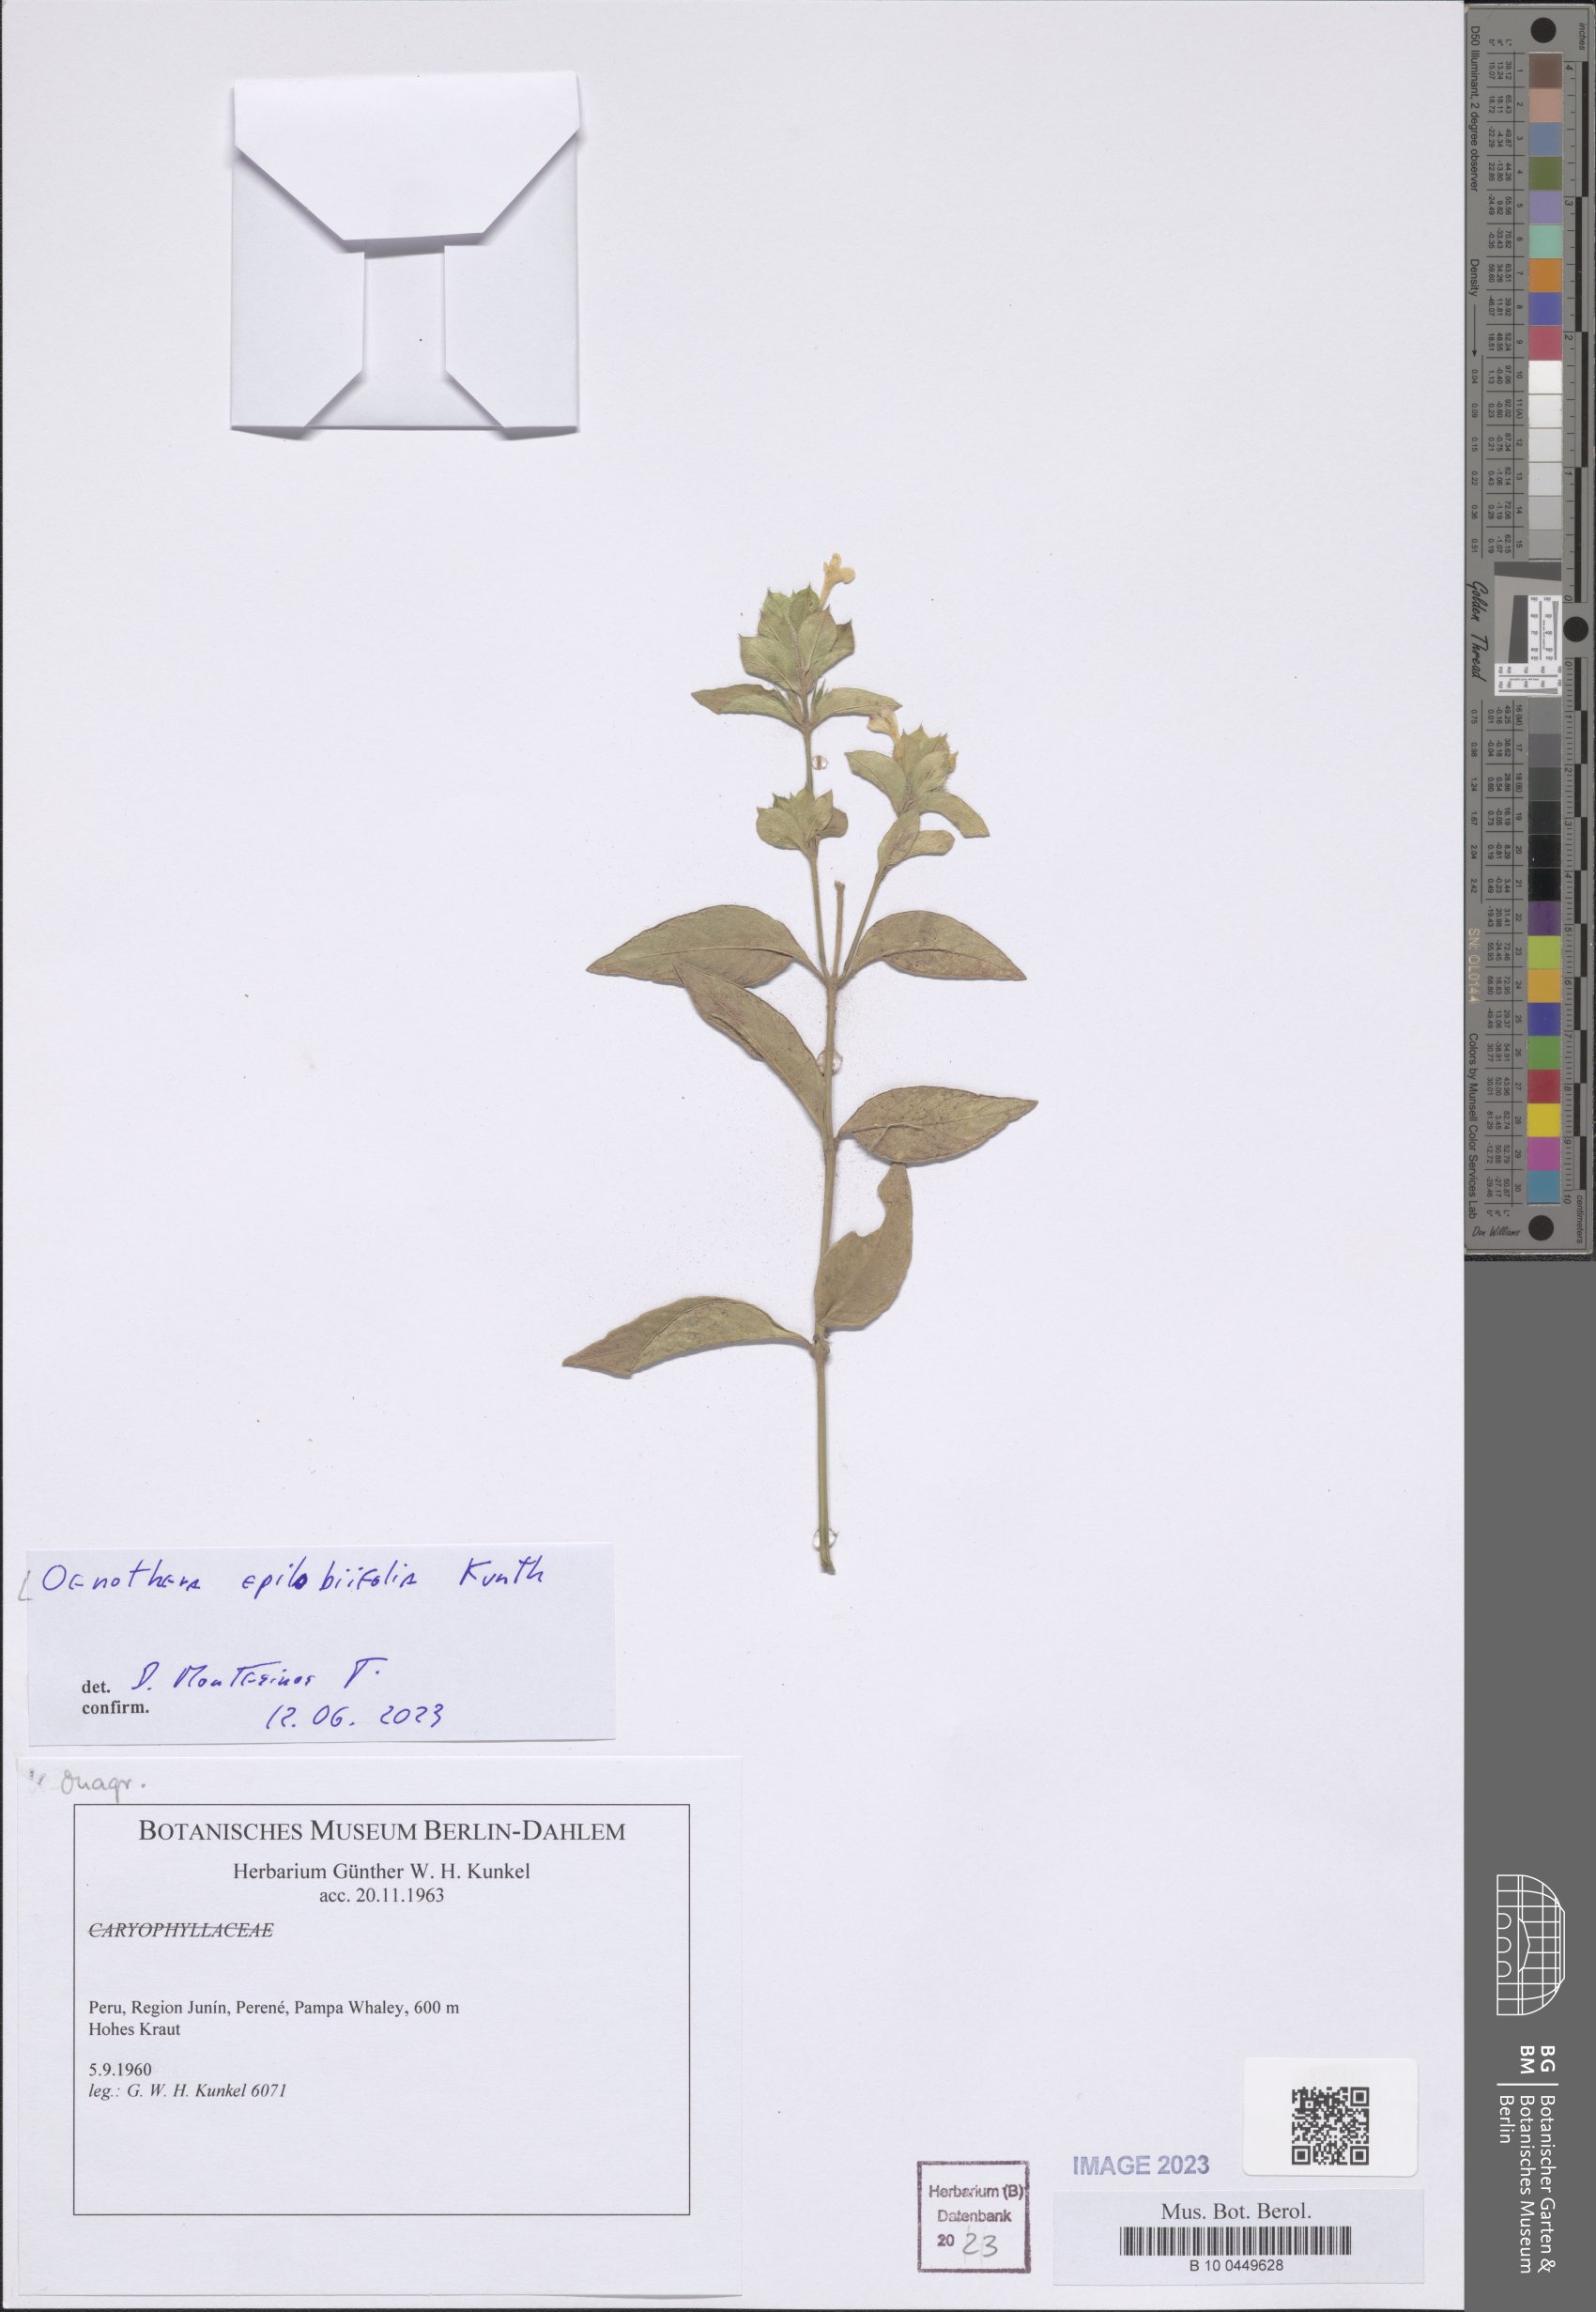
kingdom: Plantae
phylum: Tracheophyta
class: Magnoliopsida
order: Myrtales
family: Onagraceae
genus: Oenothera
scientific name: Oenothera epilobiifolia
